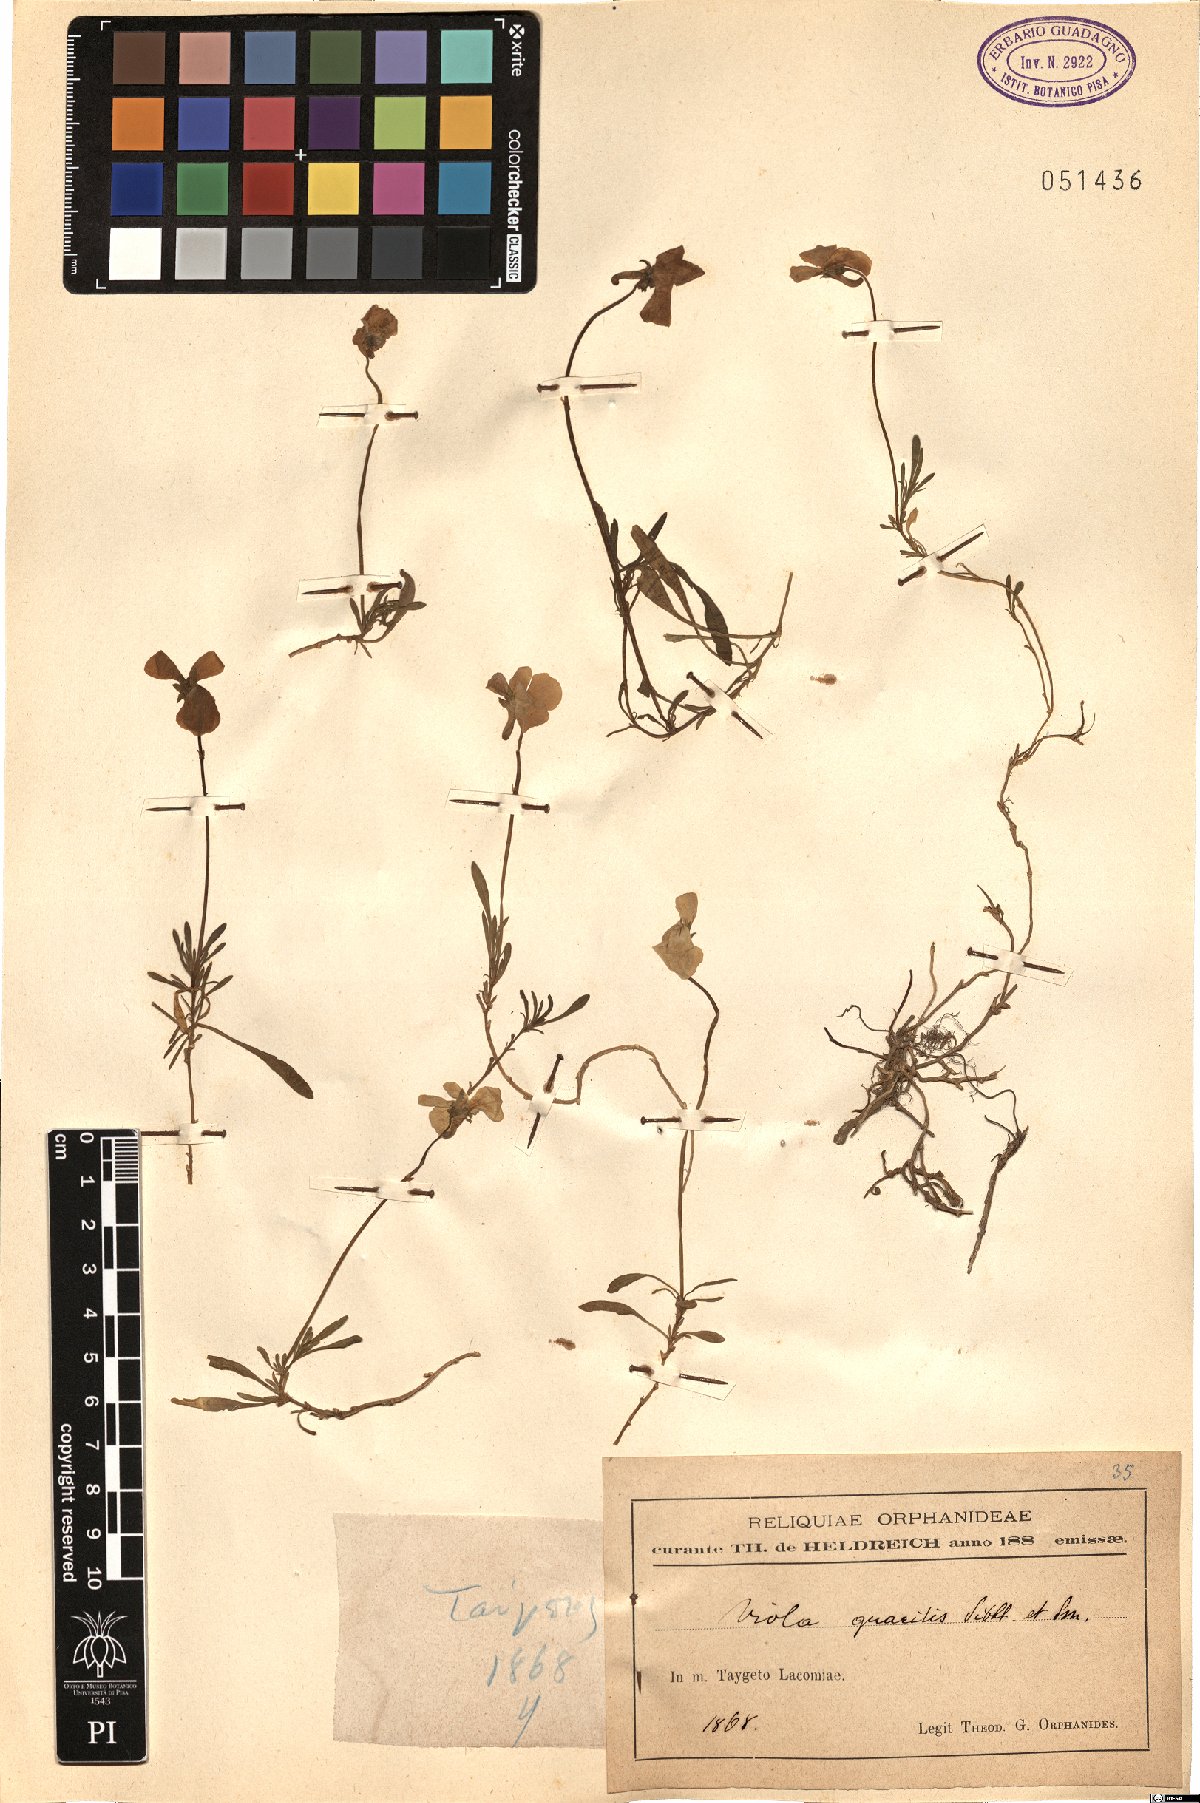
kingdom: Plantae
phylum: Tracheophyta
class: Magnoliopsida
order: Malpighiales
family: Violaceae
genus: Viola
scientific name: Viola gracilis
